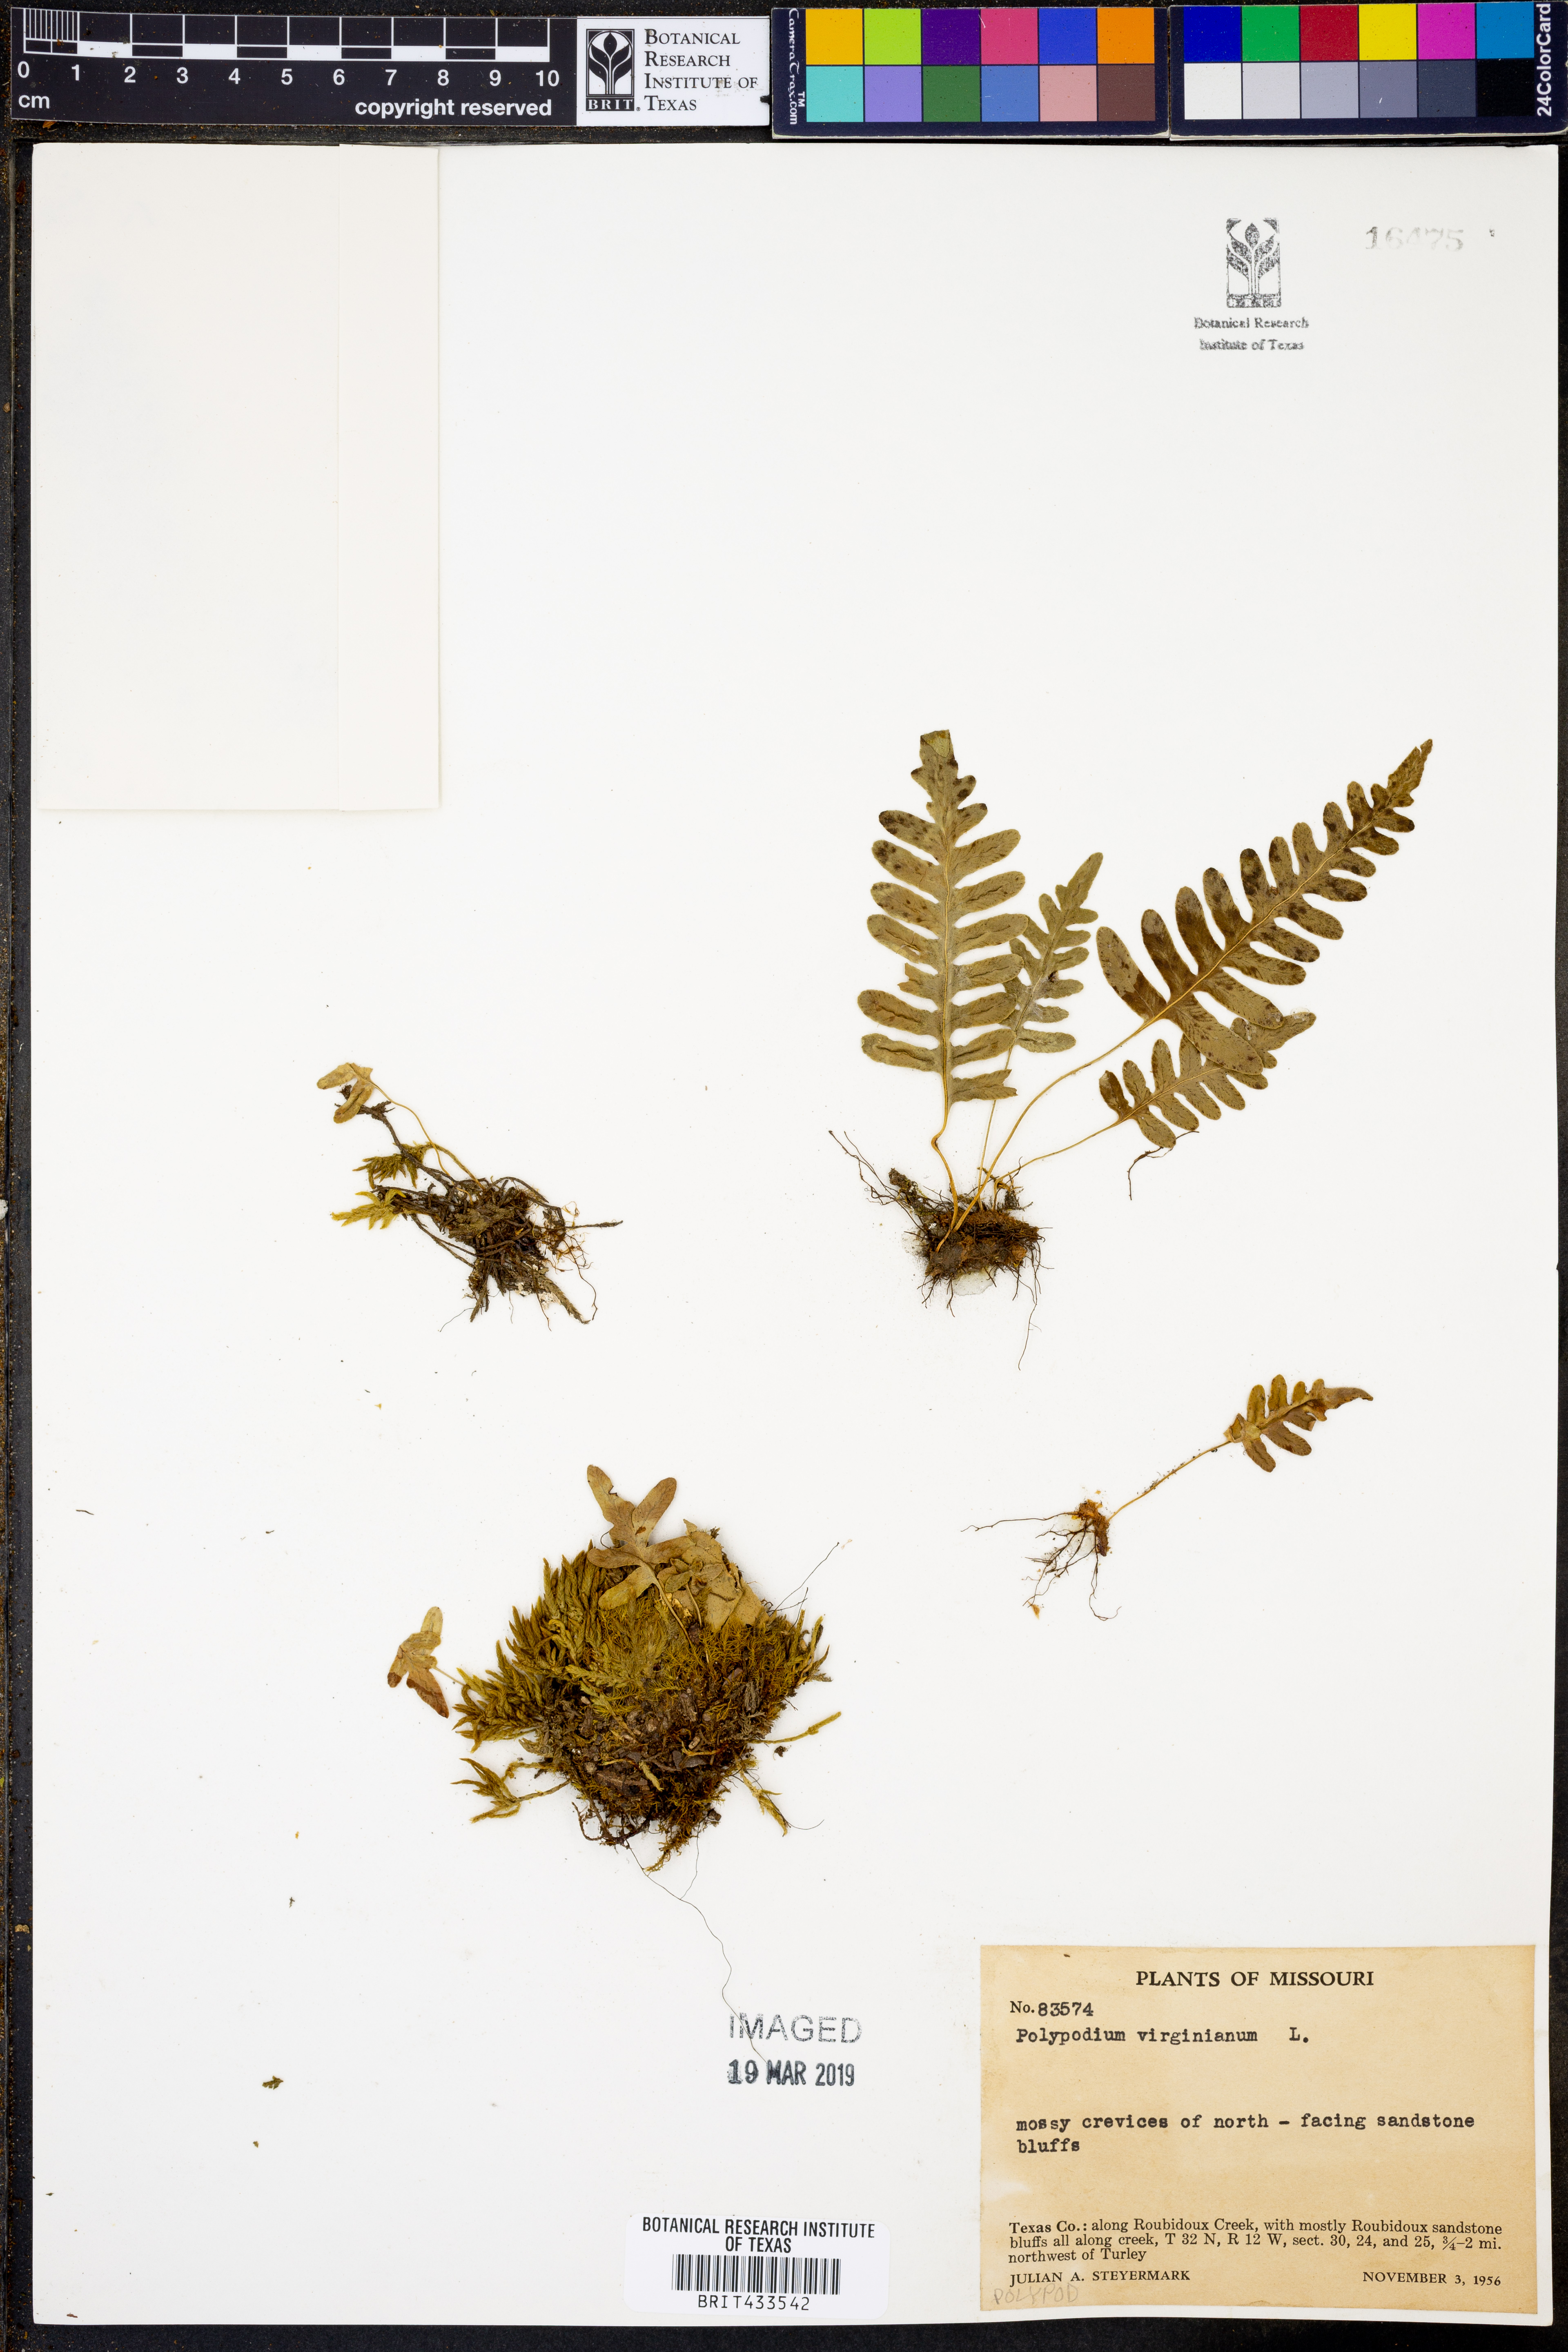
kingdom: Plantae
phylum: Tracheophyta
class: Polypodiopsida
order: Polypodiales
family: Polypodiaceae
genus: Polypodium
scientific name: Polypodium virginianum
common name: American wall fern
